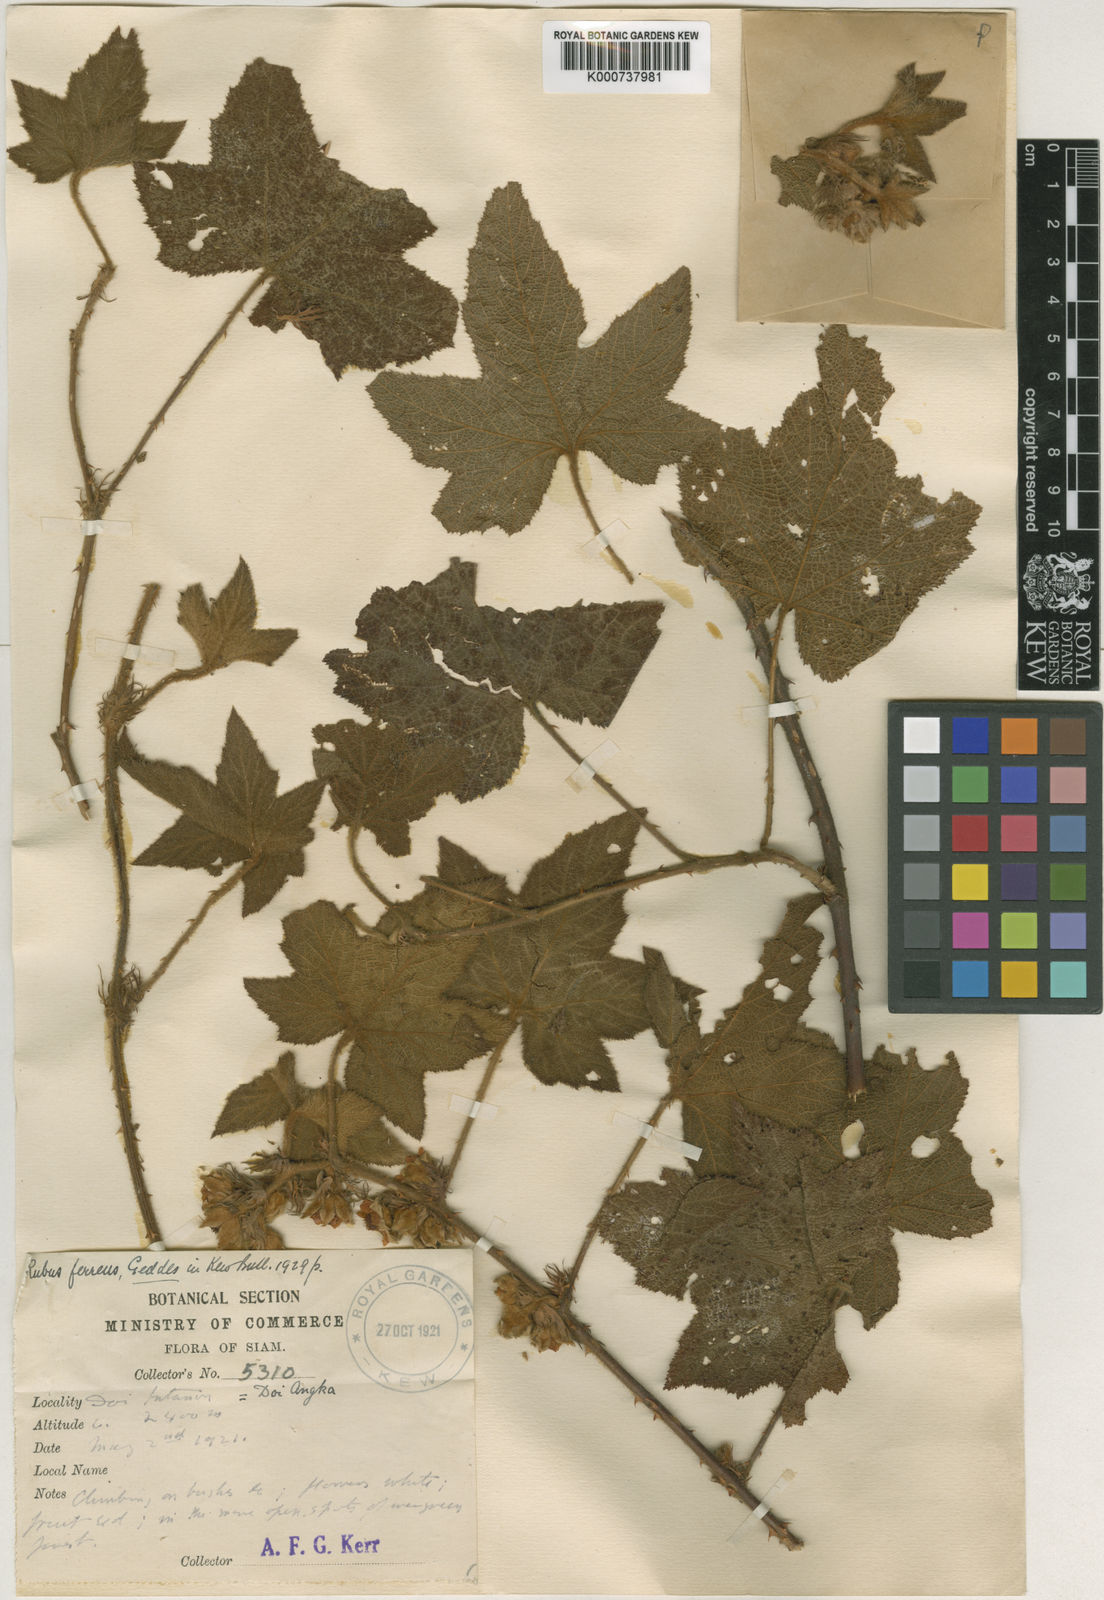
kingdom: Plantae
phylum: Tracheophyta
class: Magnoliopsida
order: Rosales
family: Rosaceae
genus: Rubus
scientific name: Rubus
